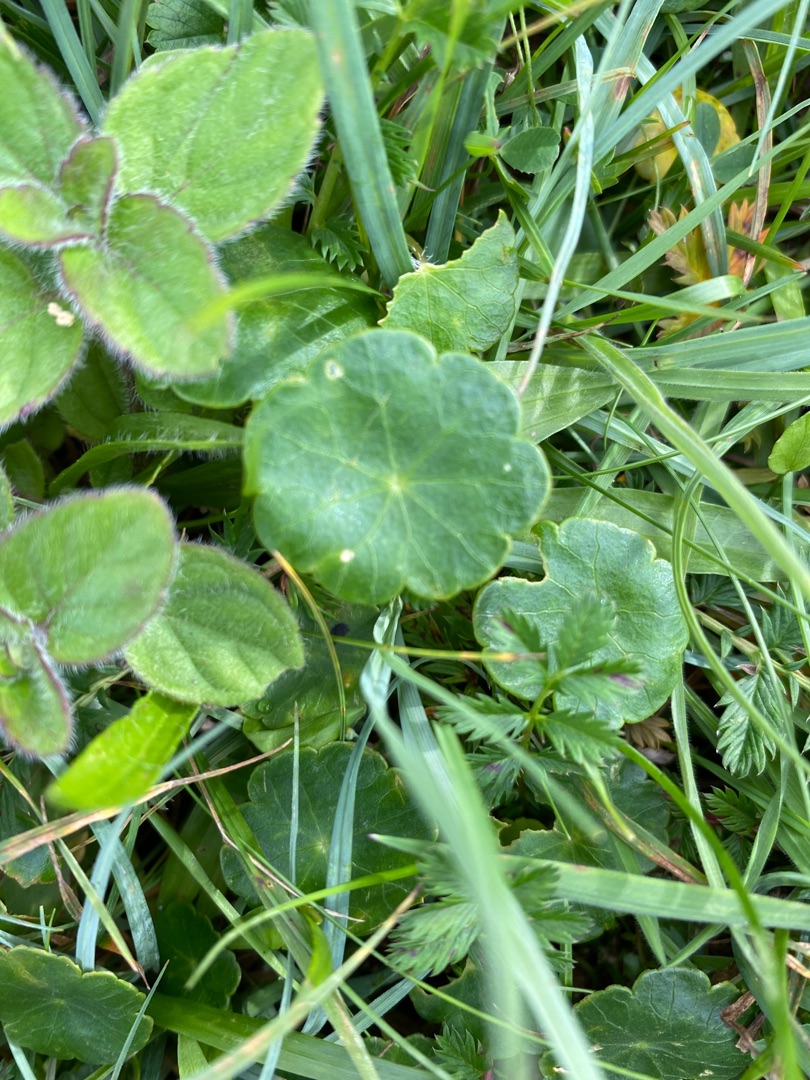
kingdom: Plantae
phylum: Tracheophyta
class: Magnoliopsida
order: Apiales
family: Araliaceae
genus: Hydrocotyle
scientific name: Hydrocotyle vulgaris
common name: Vandnavle
